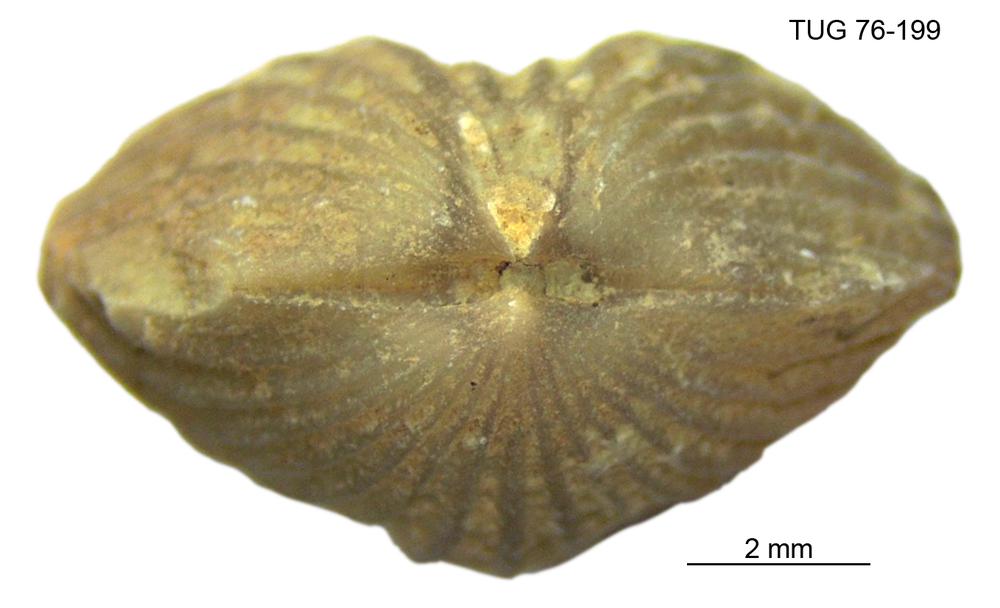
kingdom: Animalia
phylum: Brachiopoda
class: Rhynchonellata
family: Plectorthidae
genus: Platystrophia
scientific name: Platystrophia dentata
